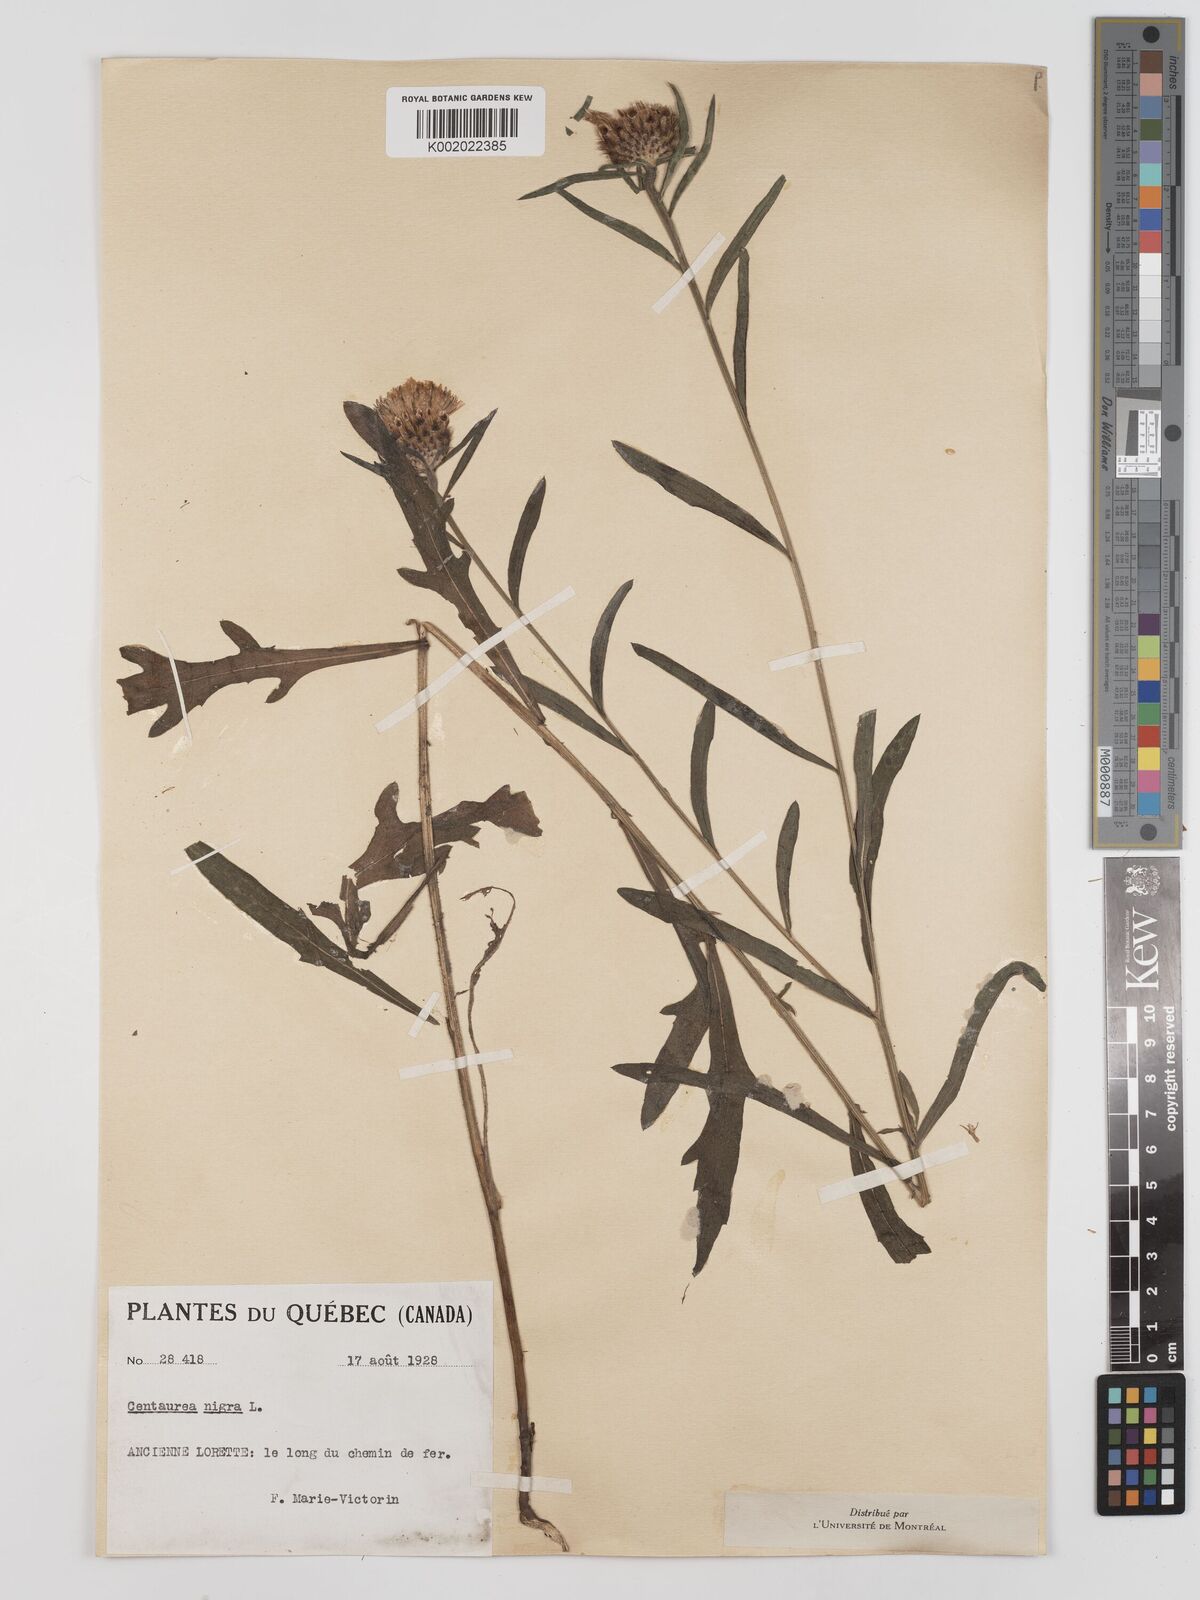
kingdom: Plantae
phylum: Tracheophyta
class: Magnoliopsida
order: Asterales
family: Asteraceae
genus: Centaurea
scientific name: Centaurea nigra
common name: Lesser knapweed
